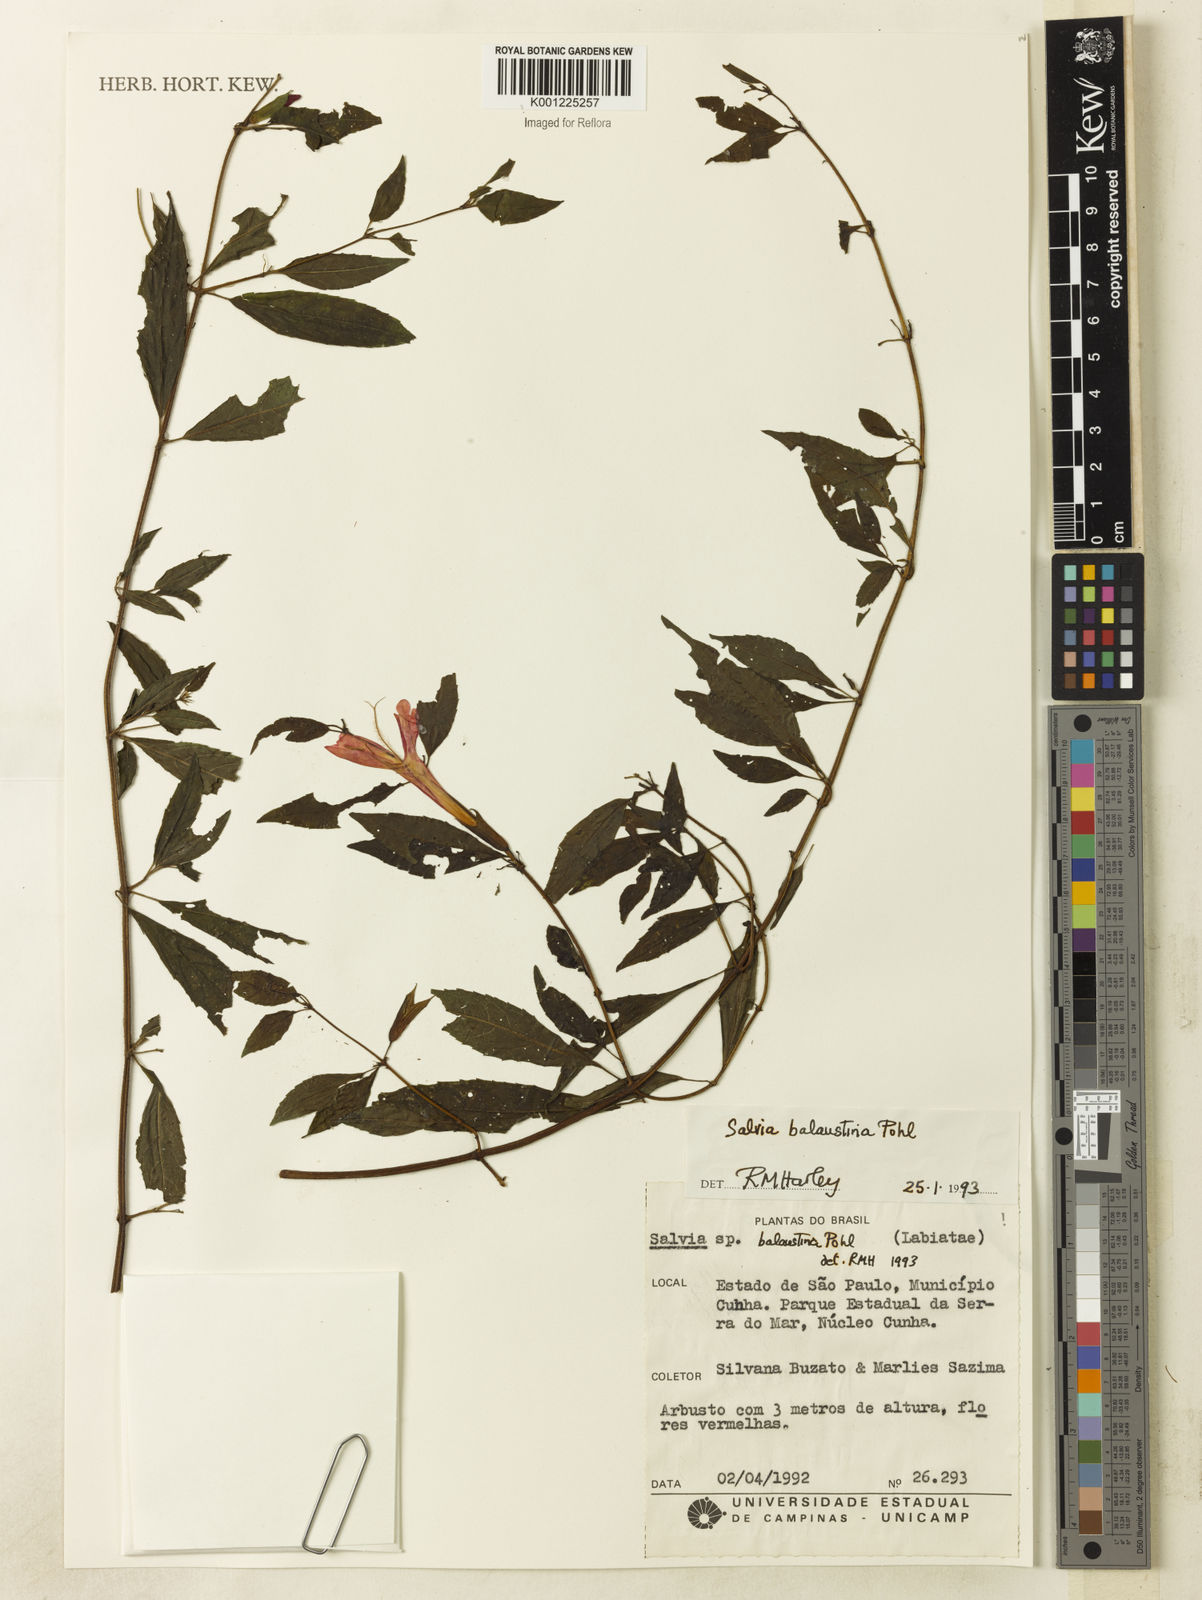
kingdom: Plantae
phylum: Tracheophyta
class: Magnoliopsida
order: Lamiales
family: Lamiaceae
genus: Salvia
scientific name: Salvia balaustina
